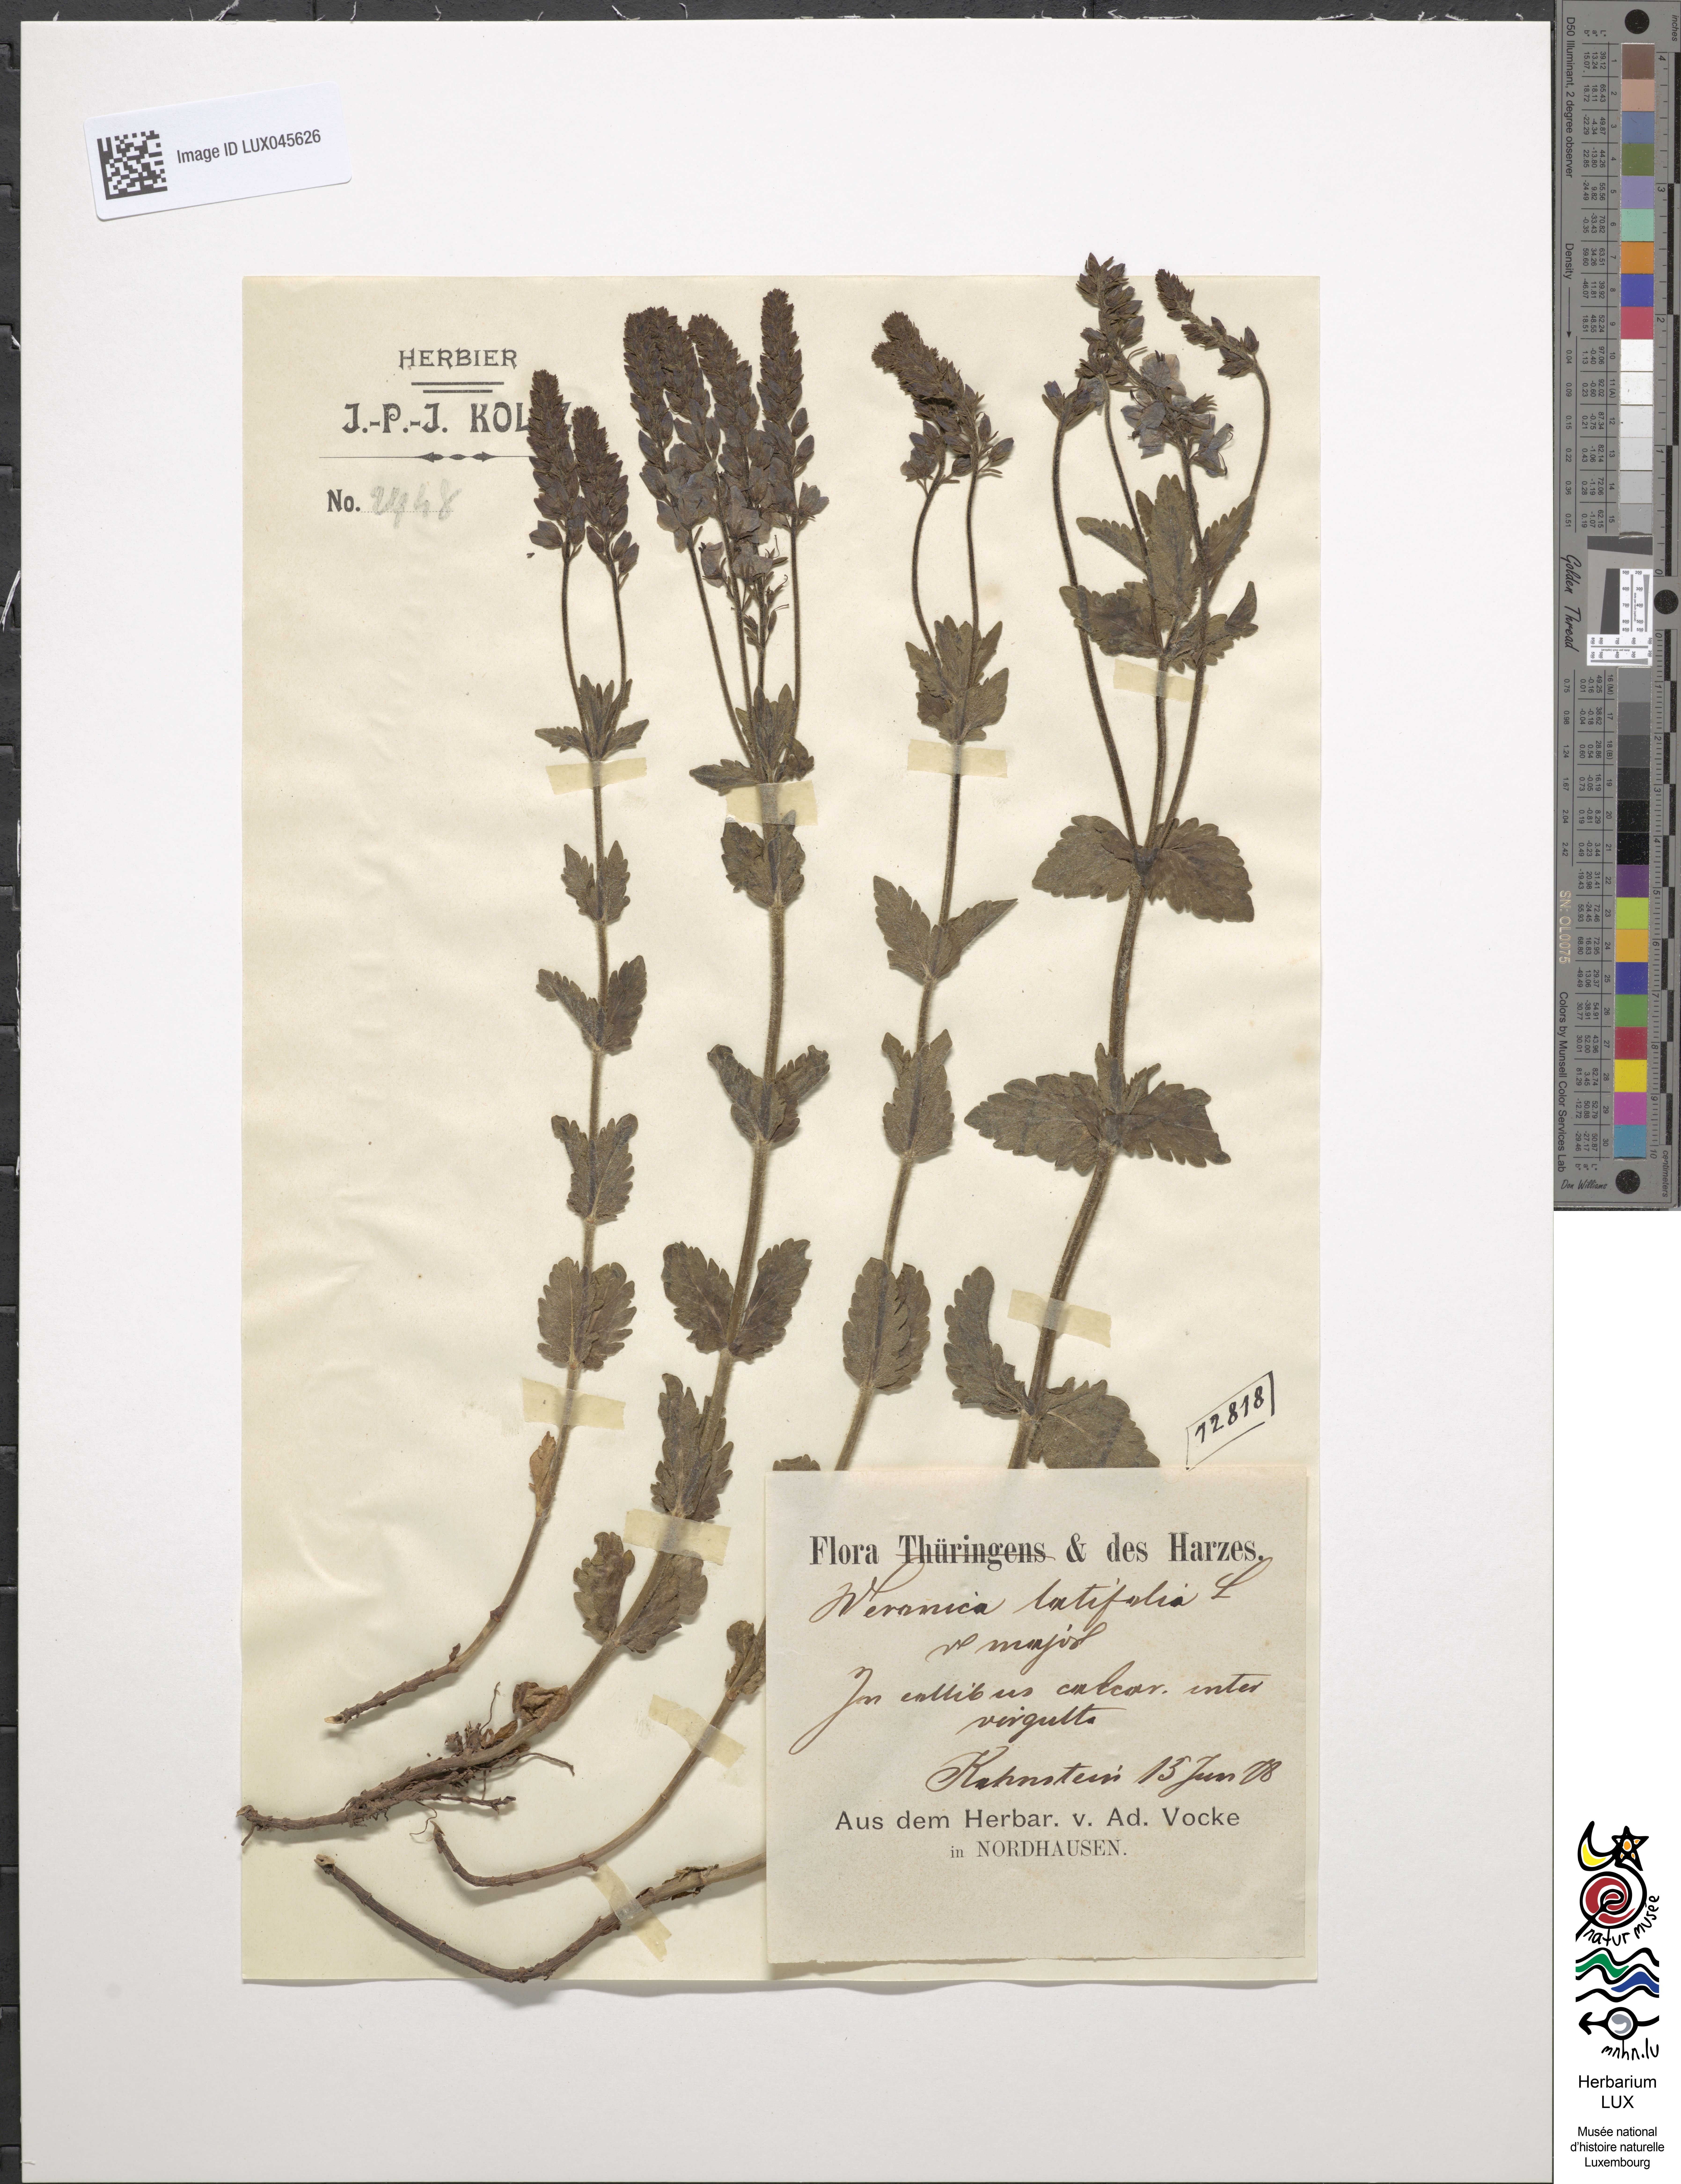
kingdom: Plantae
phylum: Tracheophyta
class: Magnoliopsida
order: Lamiales
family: Plantaginaceae
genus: Veronica
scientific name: Veronica urticifolia
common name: Nettle-leaf speedwell
